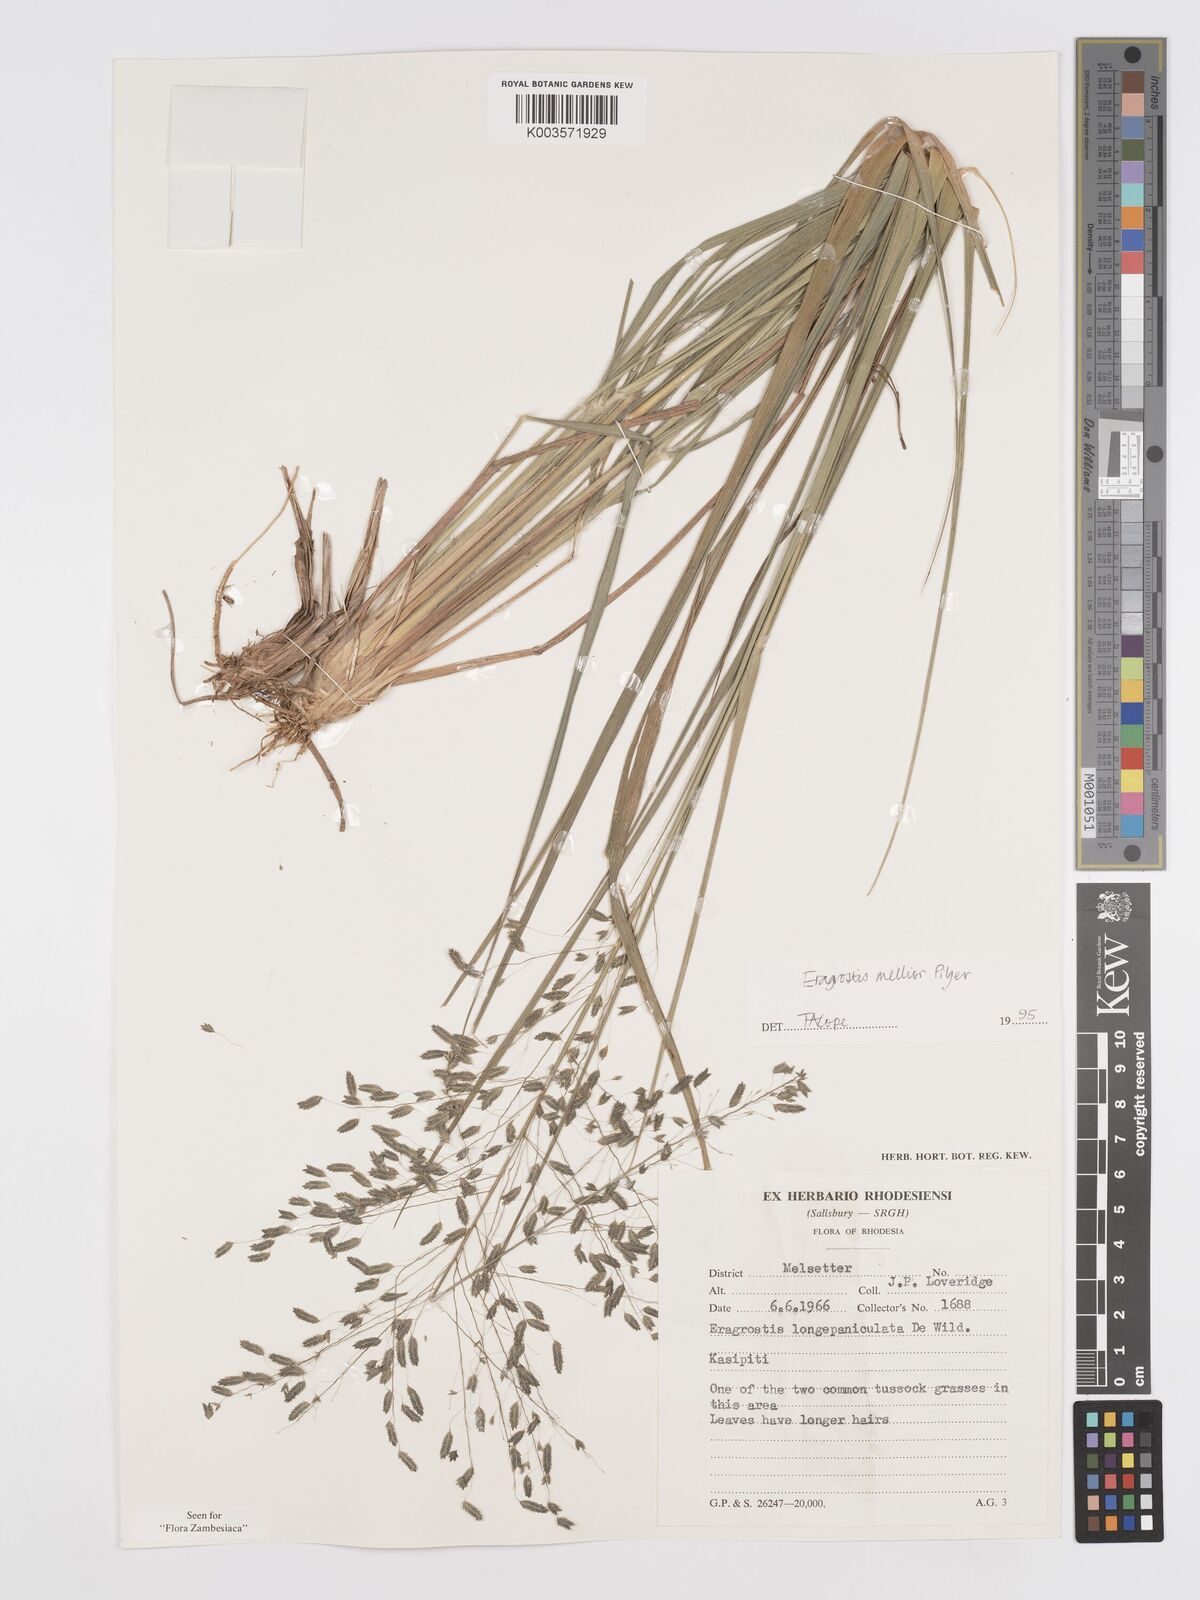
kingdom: Plantae
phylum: Tracheophyta
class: Liliopsida
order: Poales
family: Poaceae
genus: Eragrostis
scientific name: Eragrostis mollior
